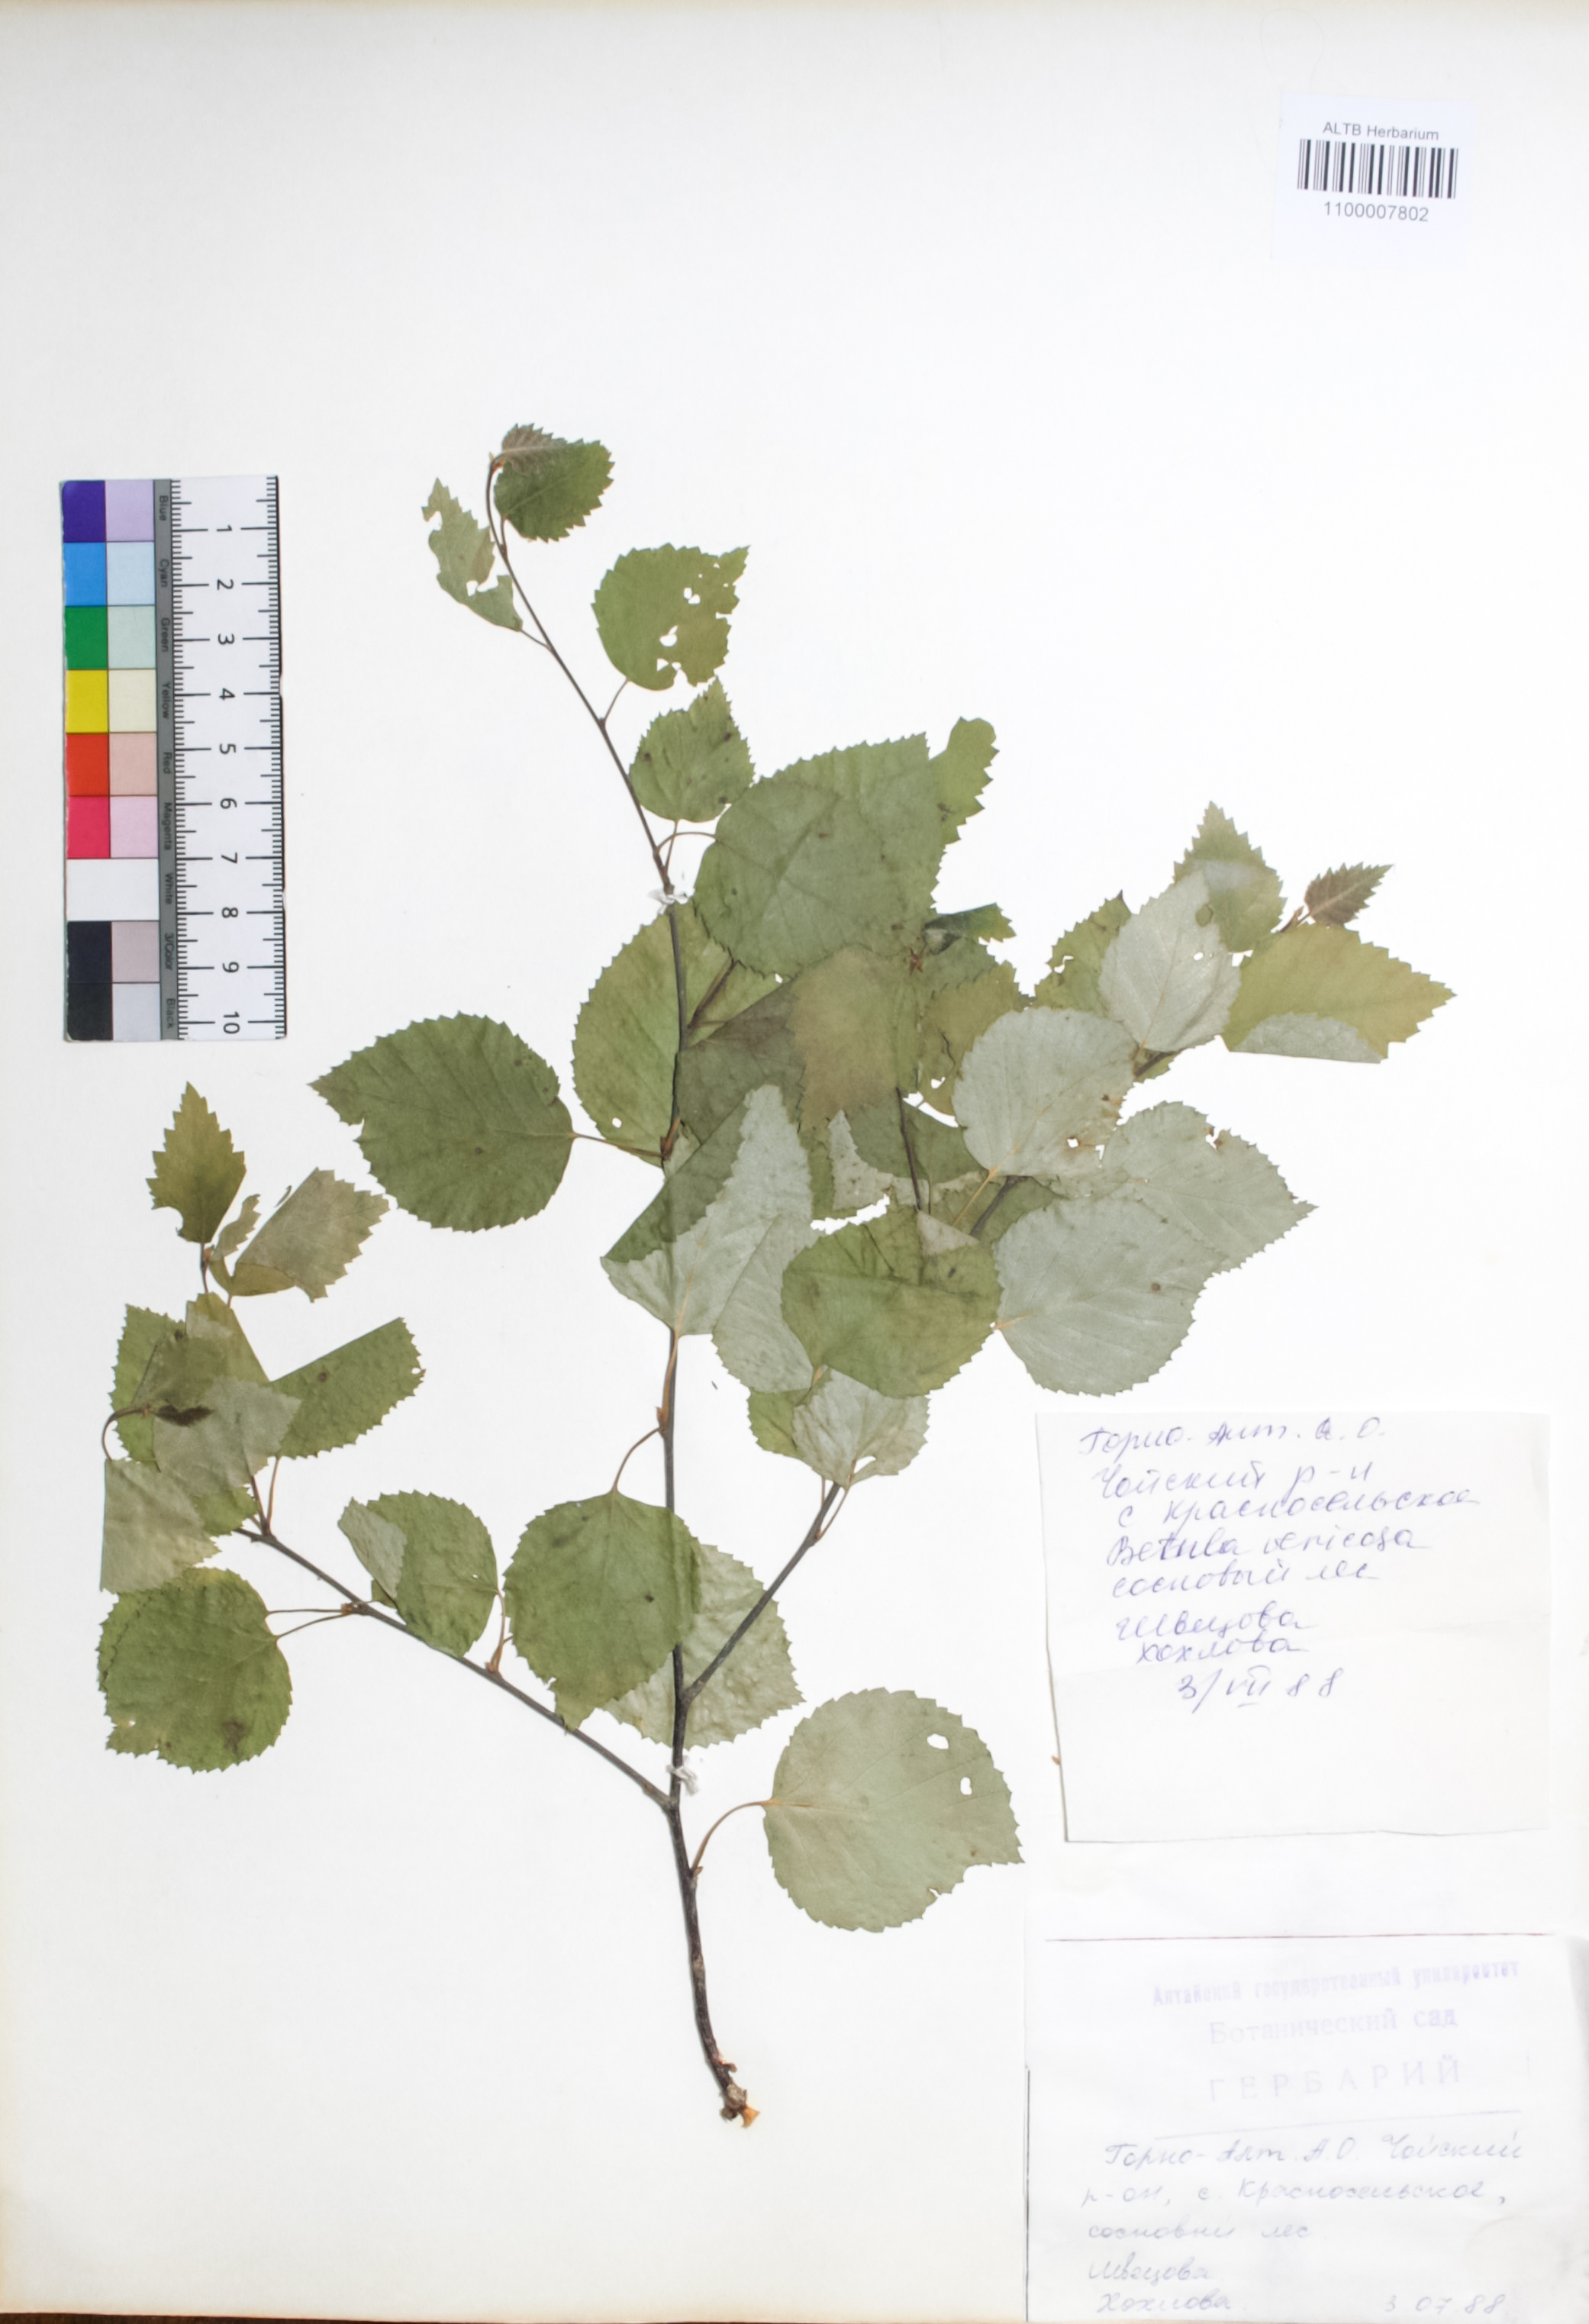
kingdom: Plantae
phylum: Tracheophyta
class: Magnoliopsida
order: Fagales
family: Betulaceae
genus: Betula
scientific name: Betula pendula
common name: Silver birch
